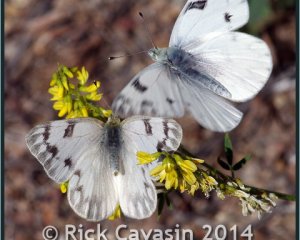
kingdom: Animalia
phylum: Arthropoda
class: Insecta
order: Lepidoptera
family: Pieridae
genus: Pontia
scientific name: Pontia occidentalis
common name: Western White
